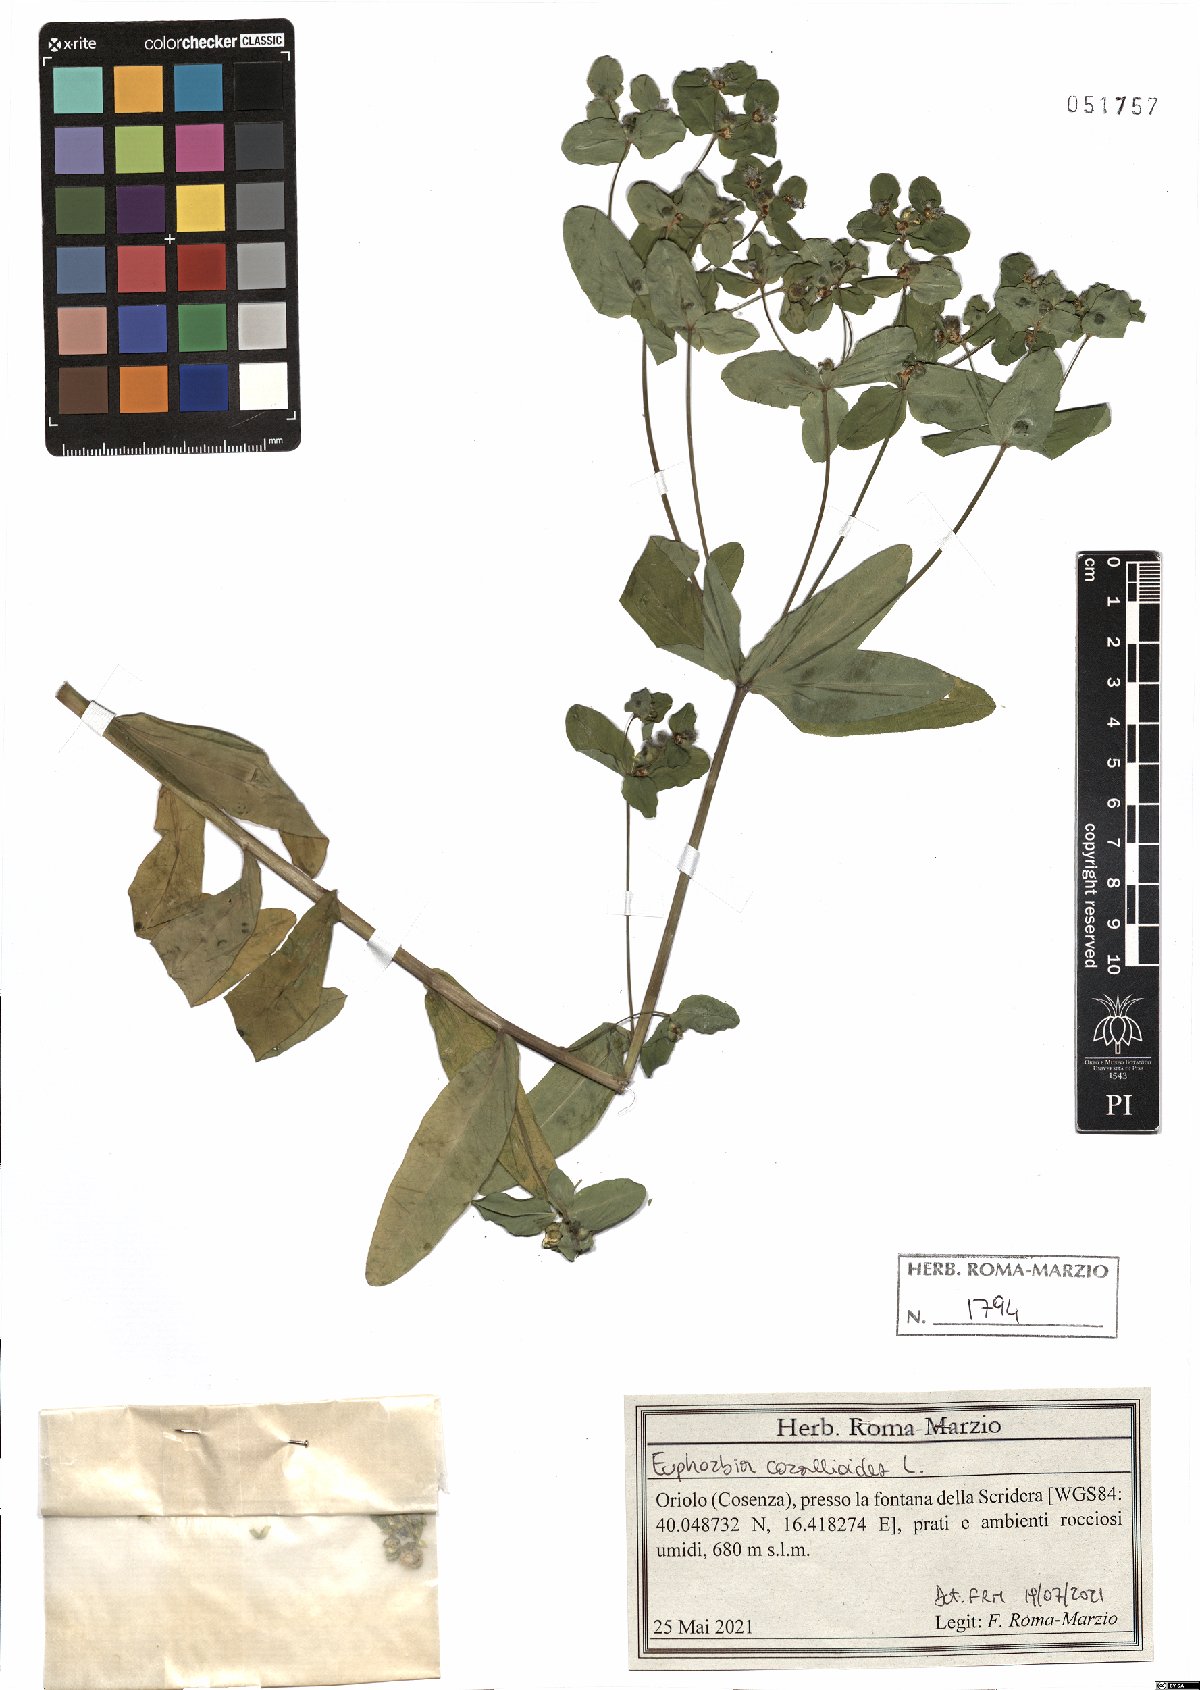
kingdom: Plantae
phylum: Tracheophyta
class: Magnoliopsida
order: Malpighiales
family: Euphorbiaceae
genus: Euphorbia
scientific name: Euphorbia corallioides
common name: Coral spurge
